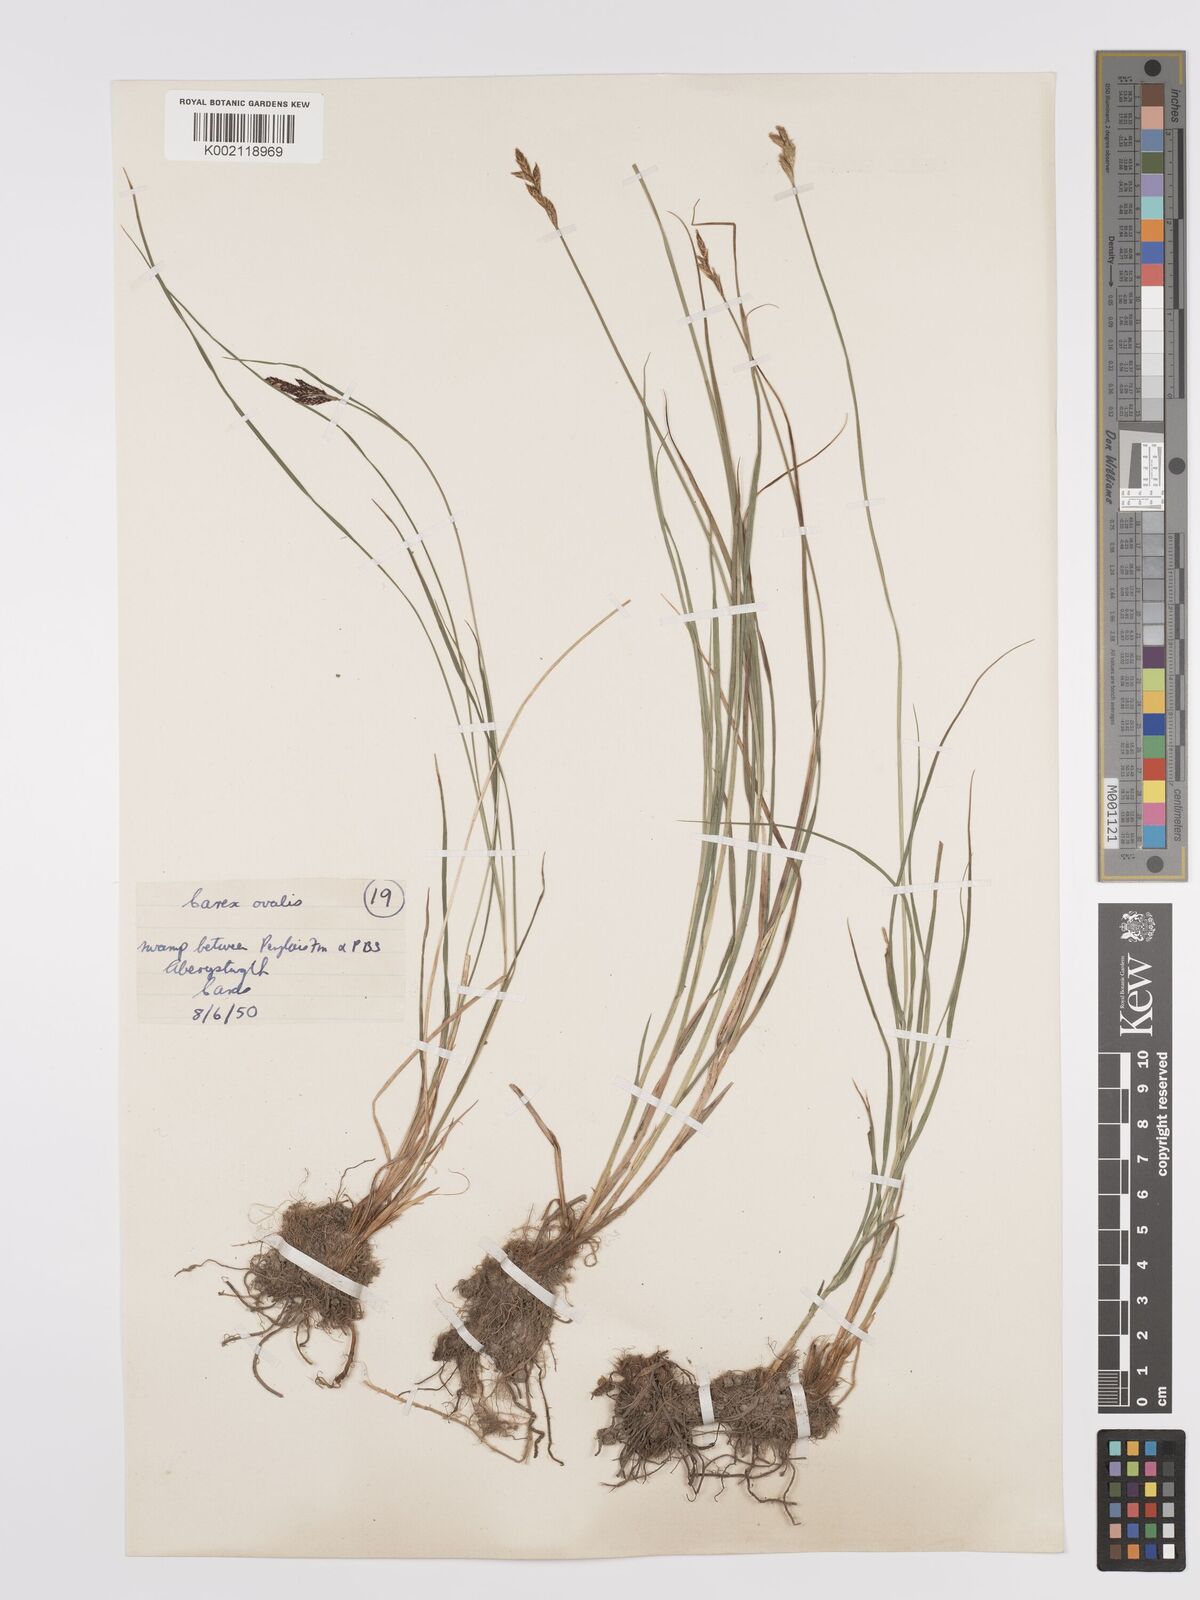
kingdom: Plantae
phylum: Tracheophyta
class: Liliopsida
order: Poales
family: Cyperaceae
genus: Carex
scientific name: Carex leporina
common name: Oval sedge
